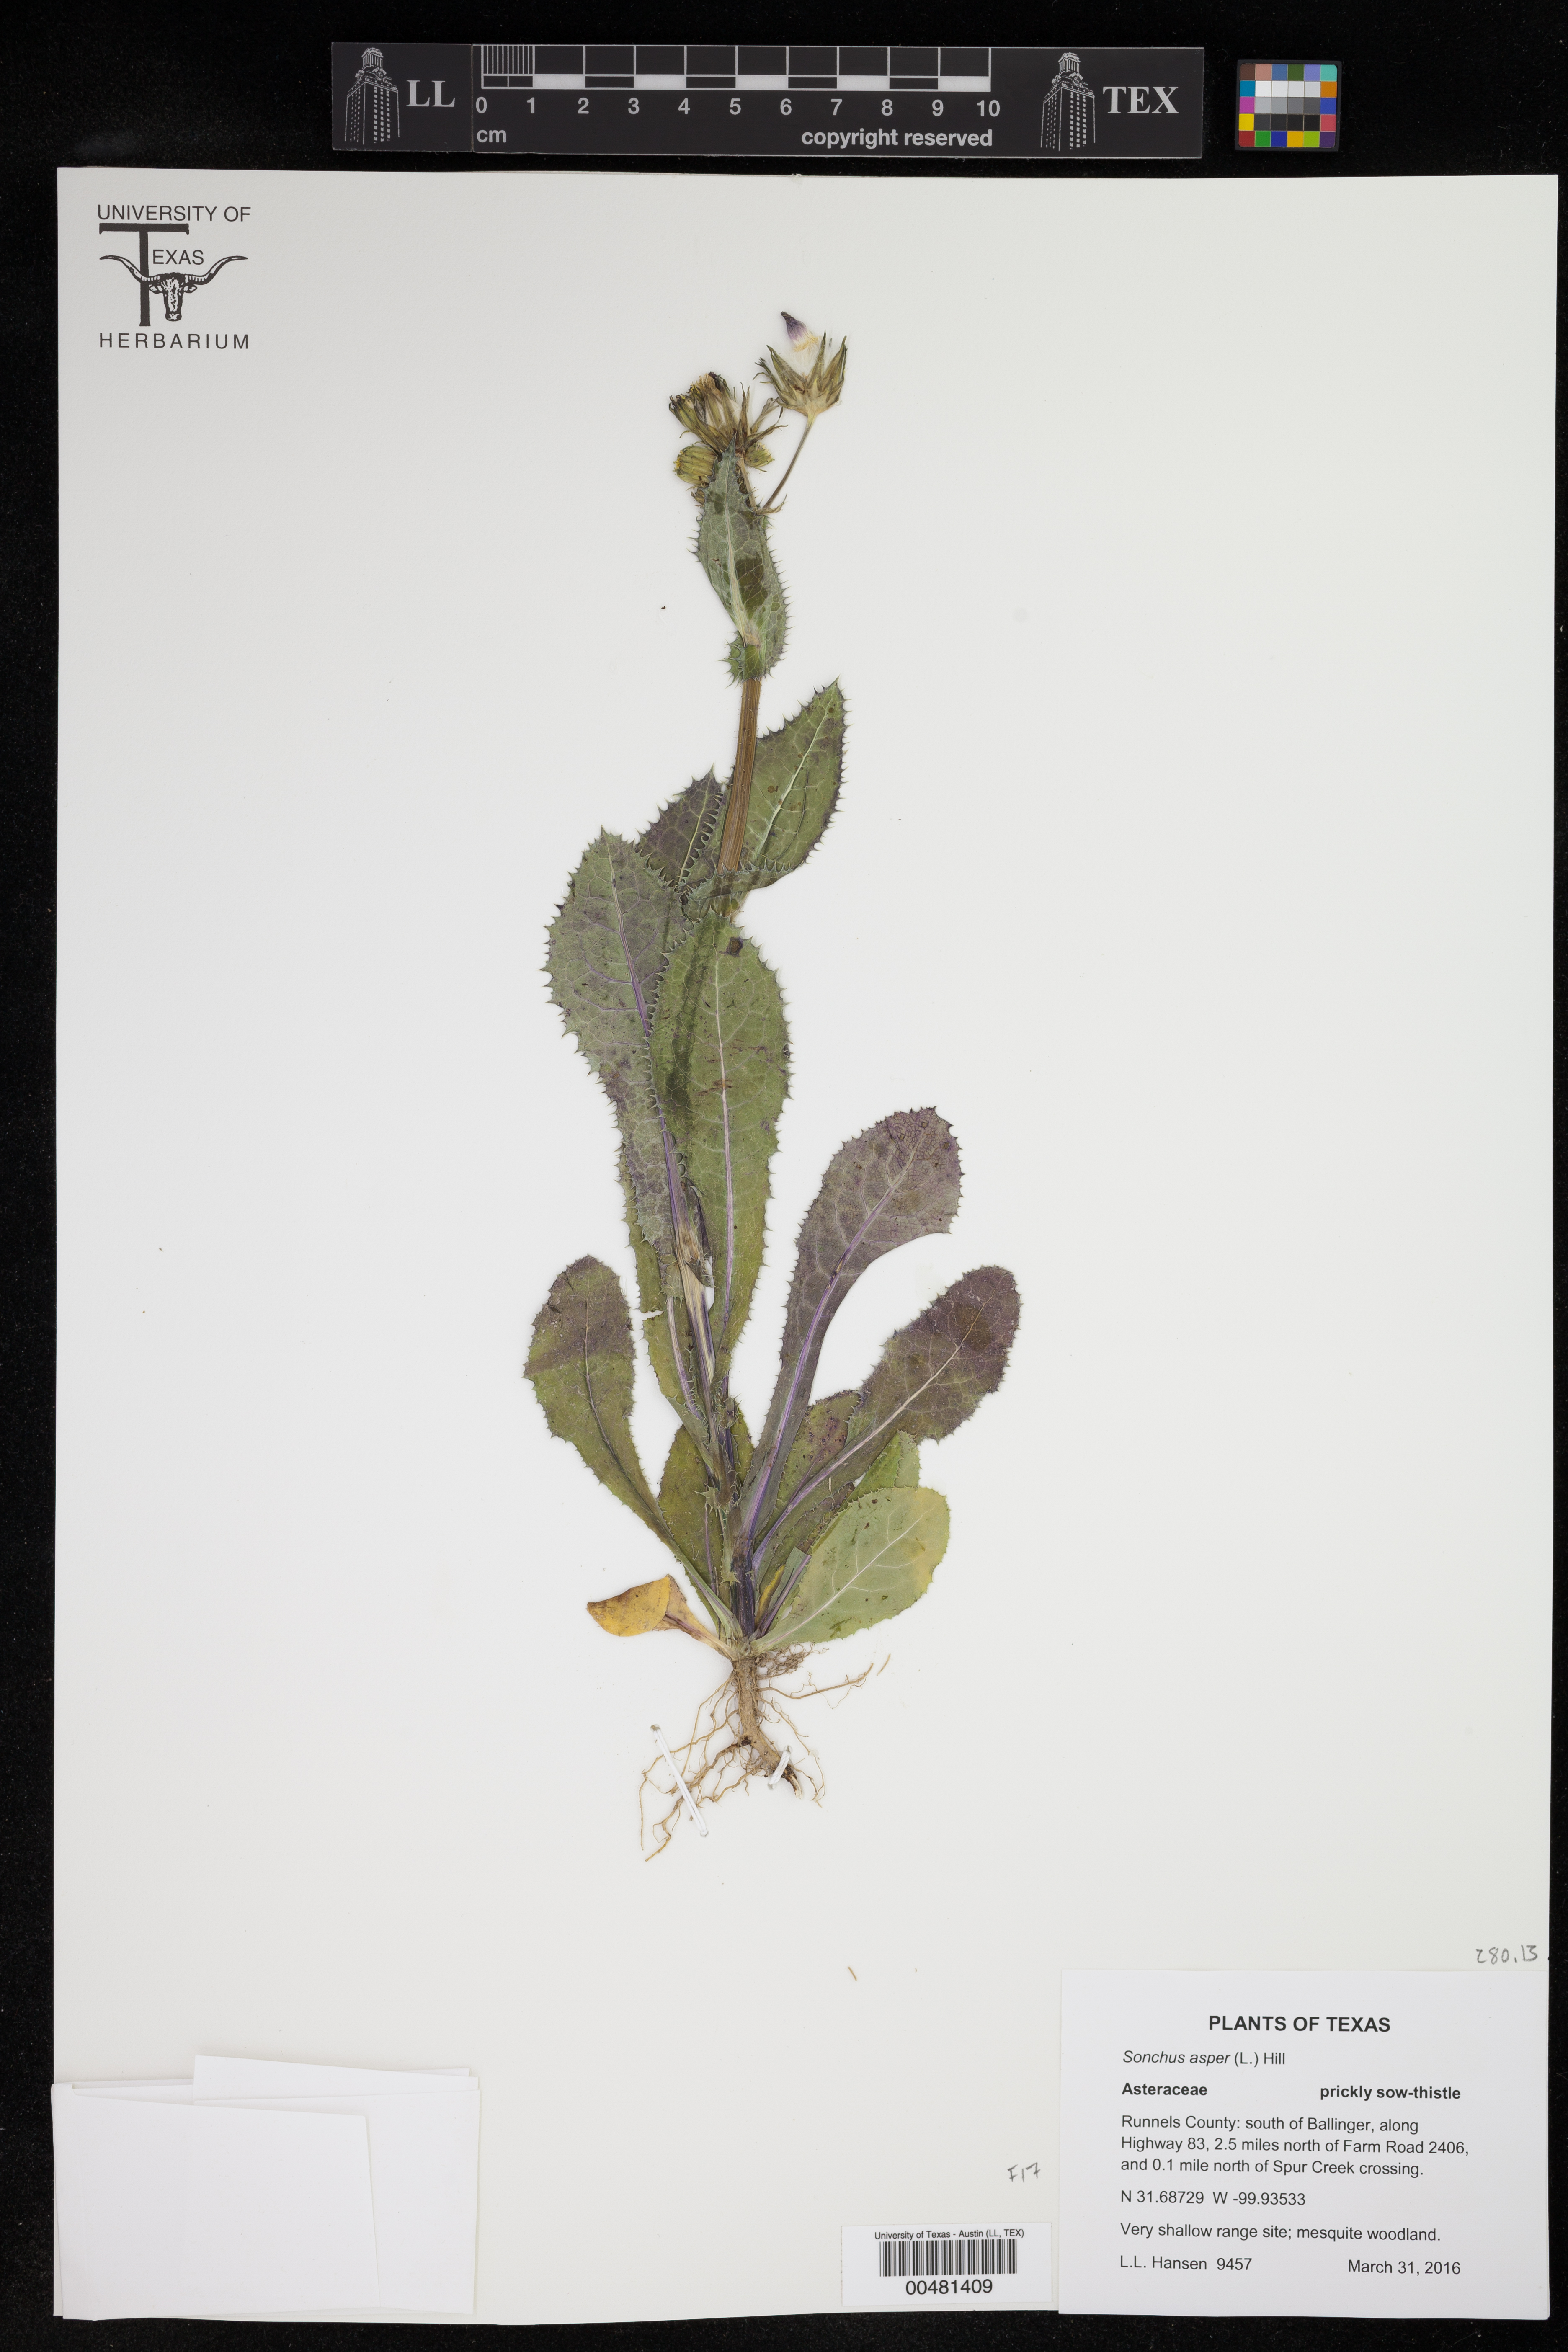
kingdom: Plantae
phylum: Tracheophyta
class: Magnoliopsida
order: Asterales
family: Asteraceae
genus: Sonchus
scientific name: Sonchus asper
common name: Prickly sow-thistle
